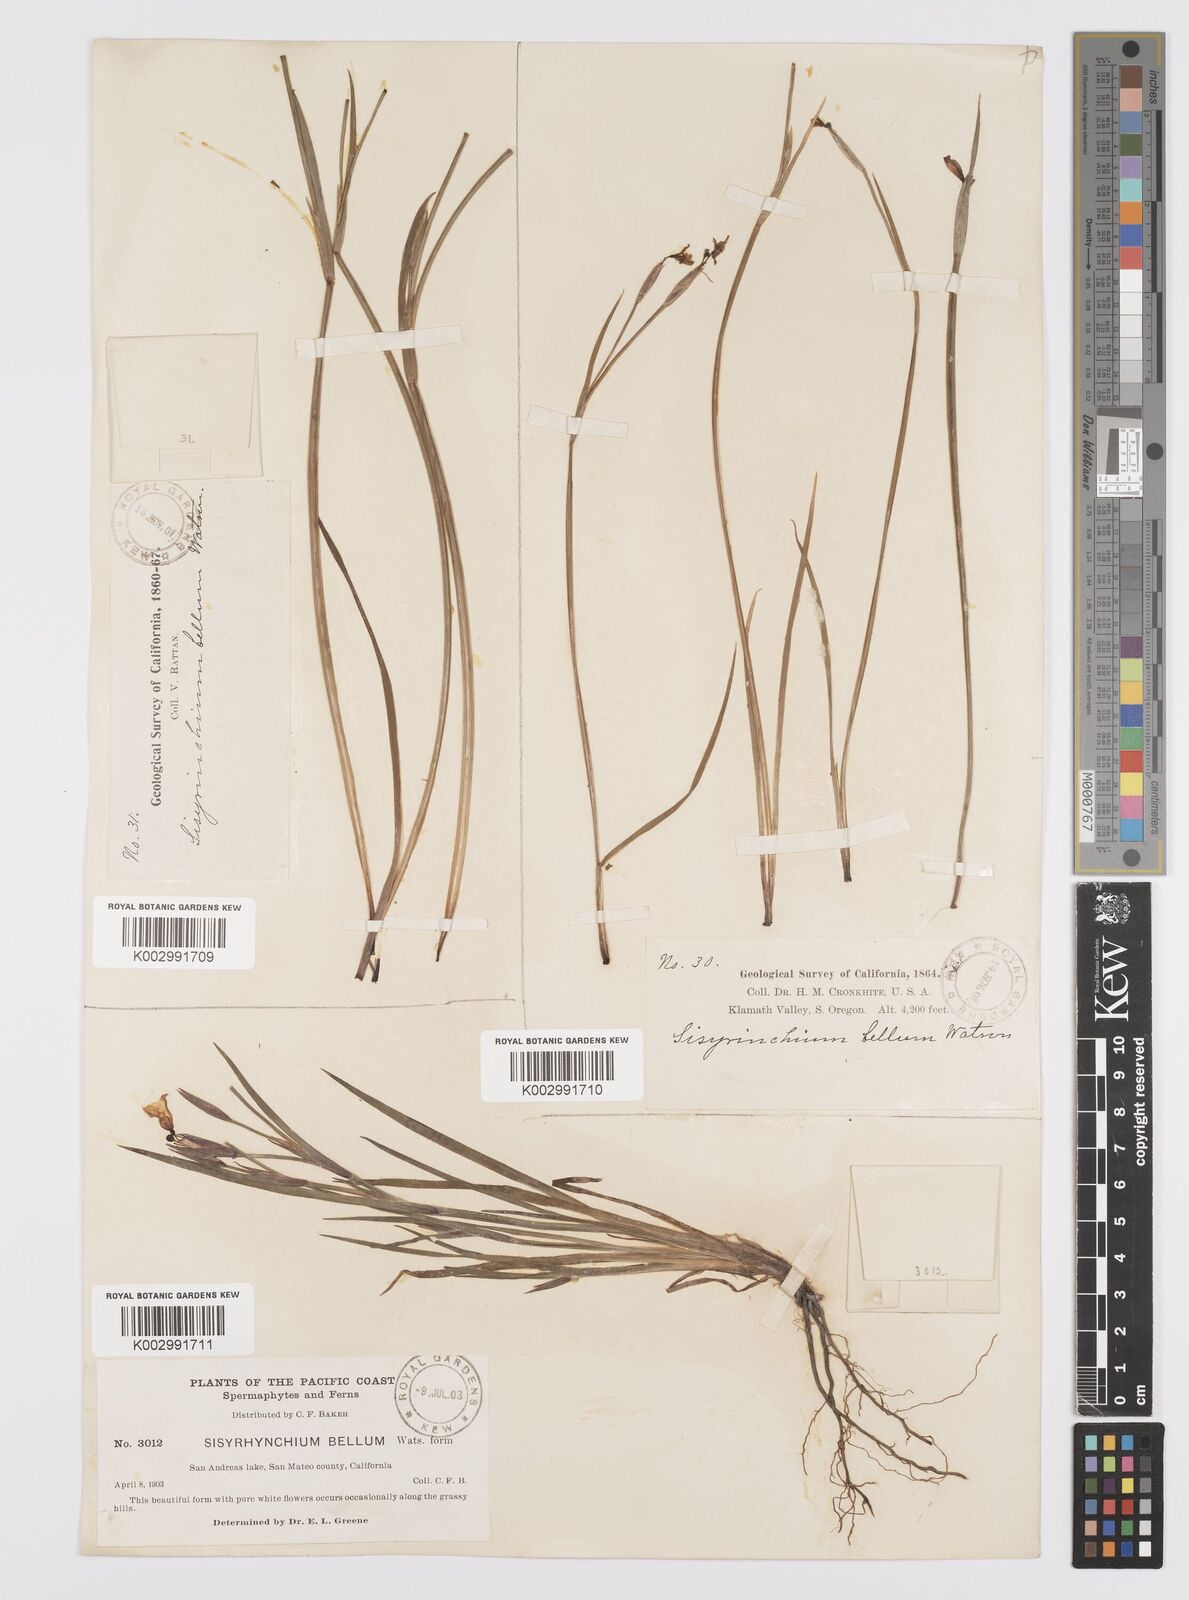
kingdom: Plantae
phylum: Tracheophyta
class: Liliopsida
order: Asparagales
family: Iridaceae
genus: Sisyrinchium
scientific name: Sisyrinchium bellum
